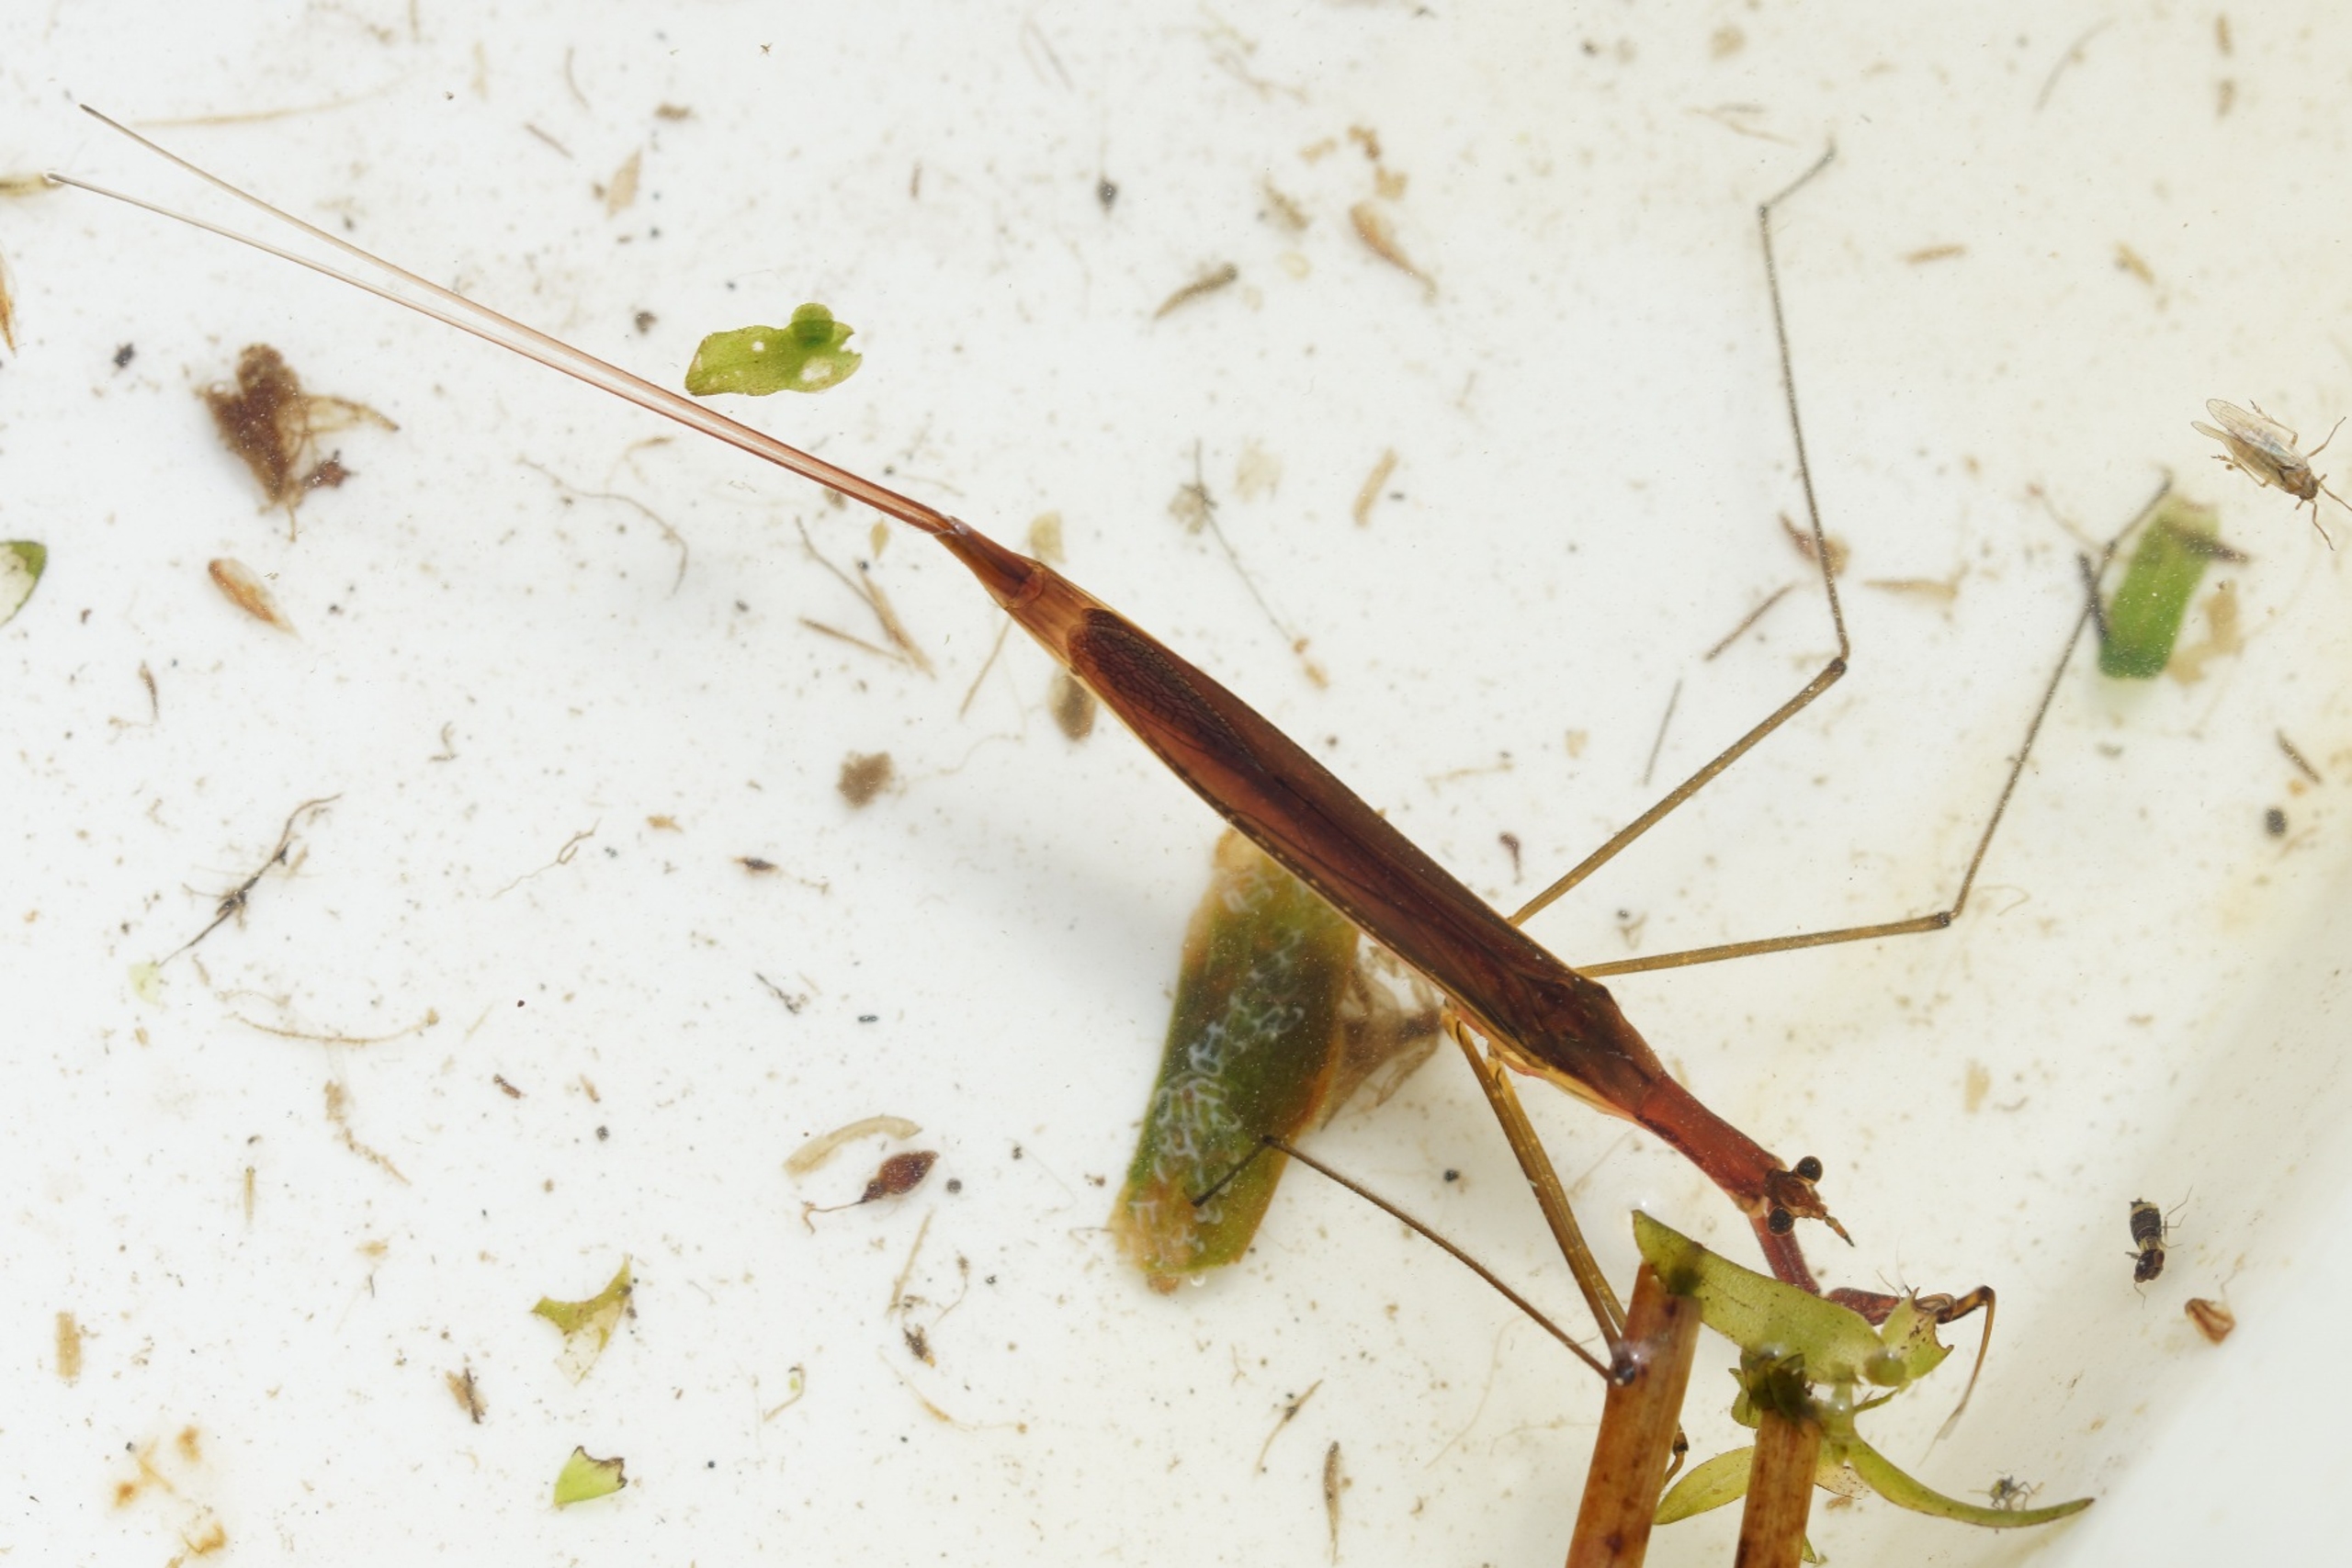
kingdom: Animalia
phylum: Arthropoda
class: Insecta
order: Hemiptera
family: Nepidae
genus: Ranatra
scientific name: Ranatra linearis
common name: Stavtæge
